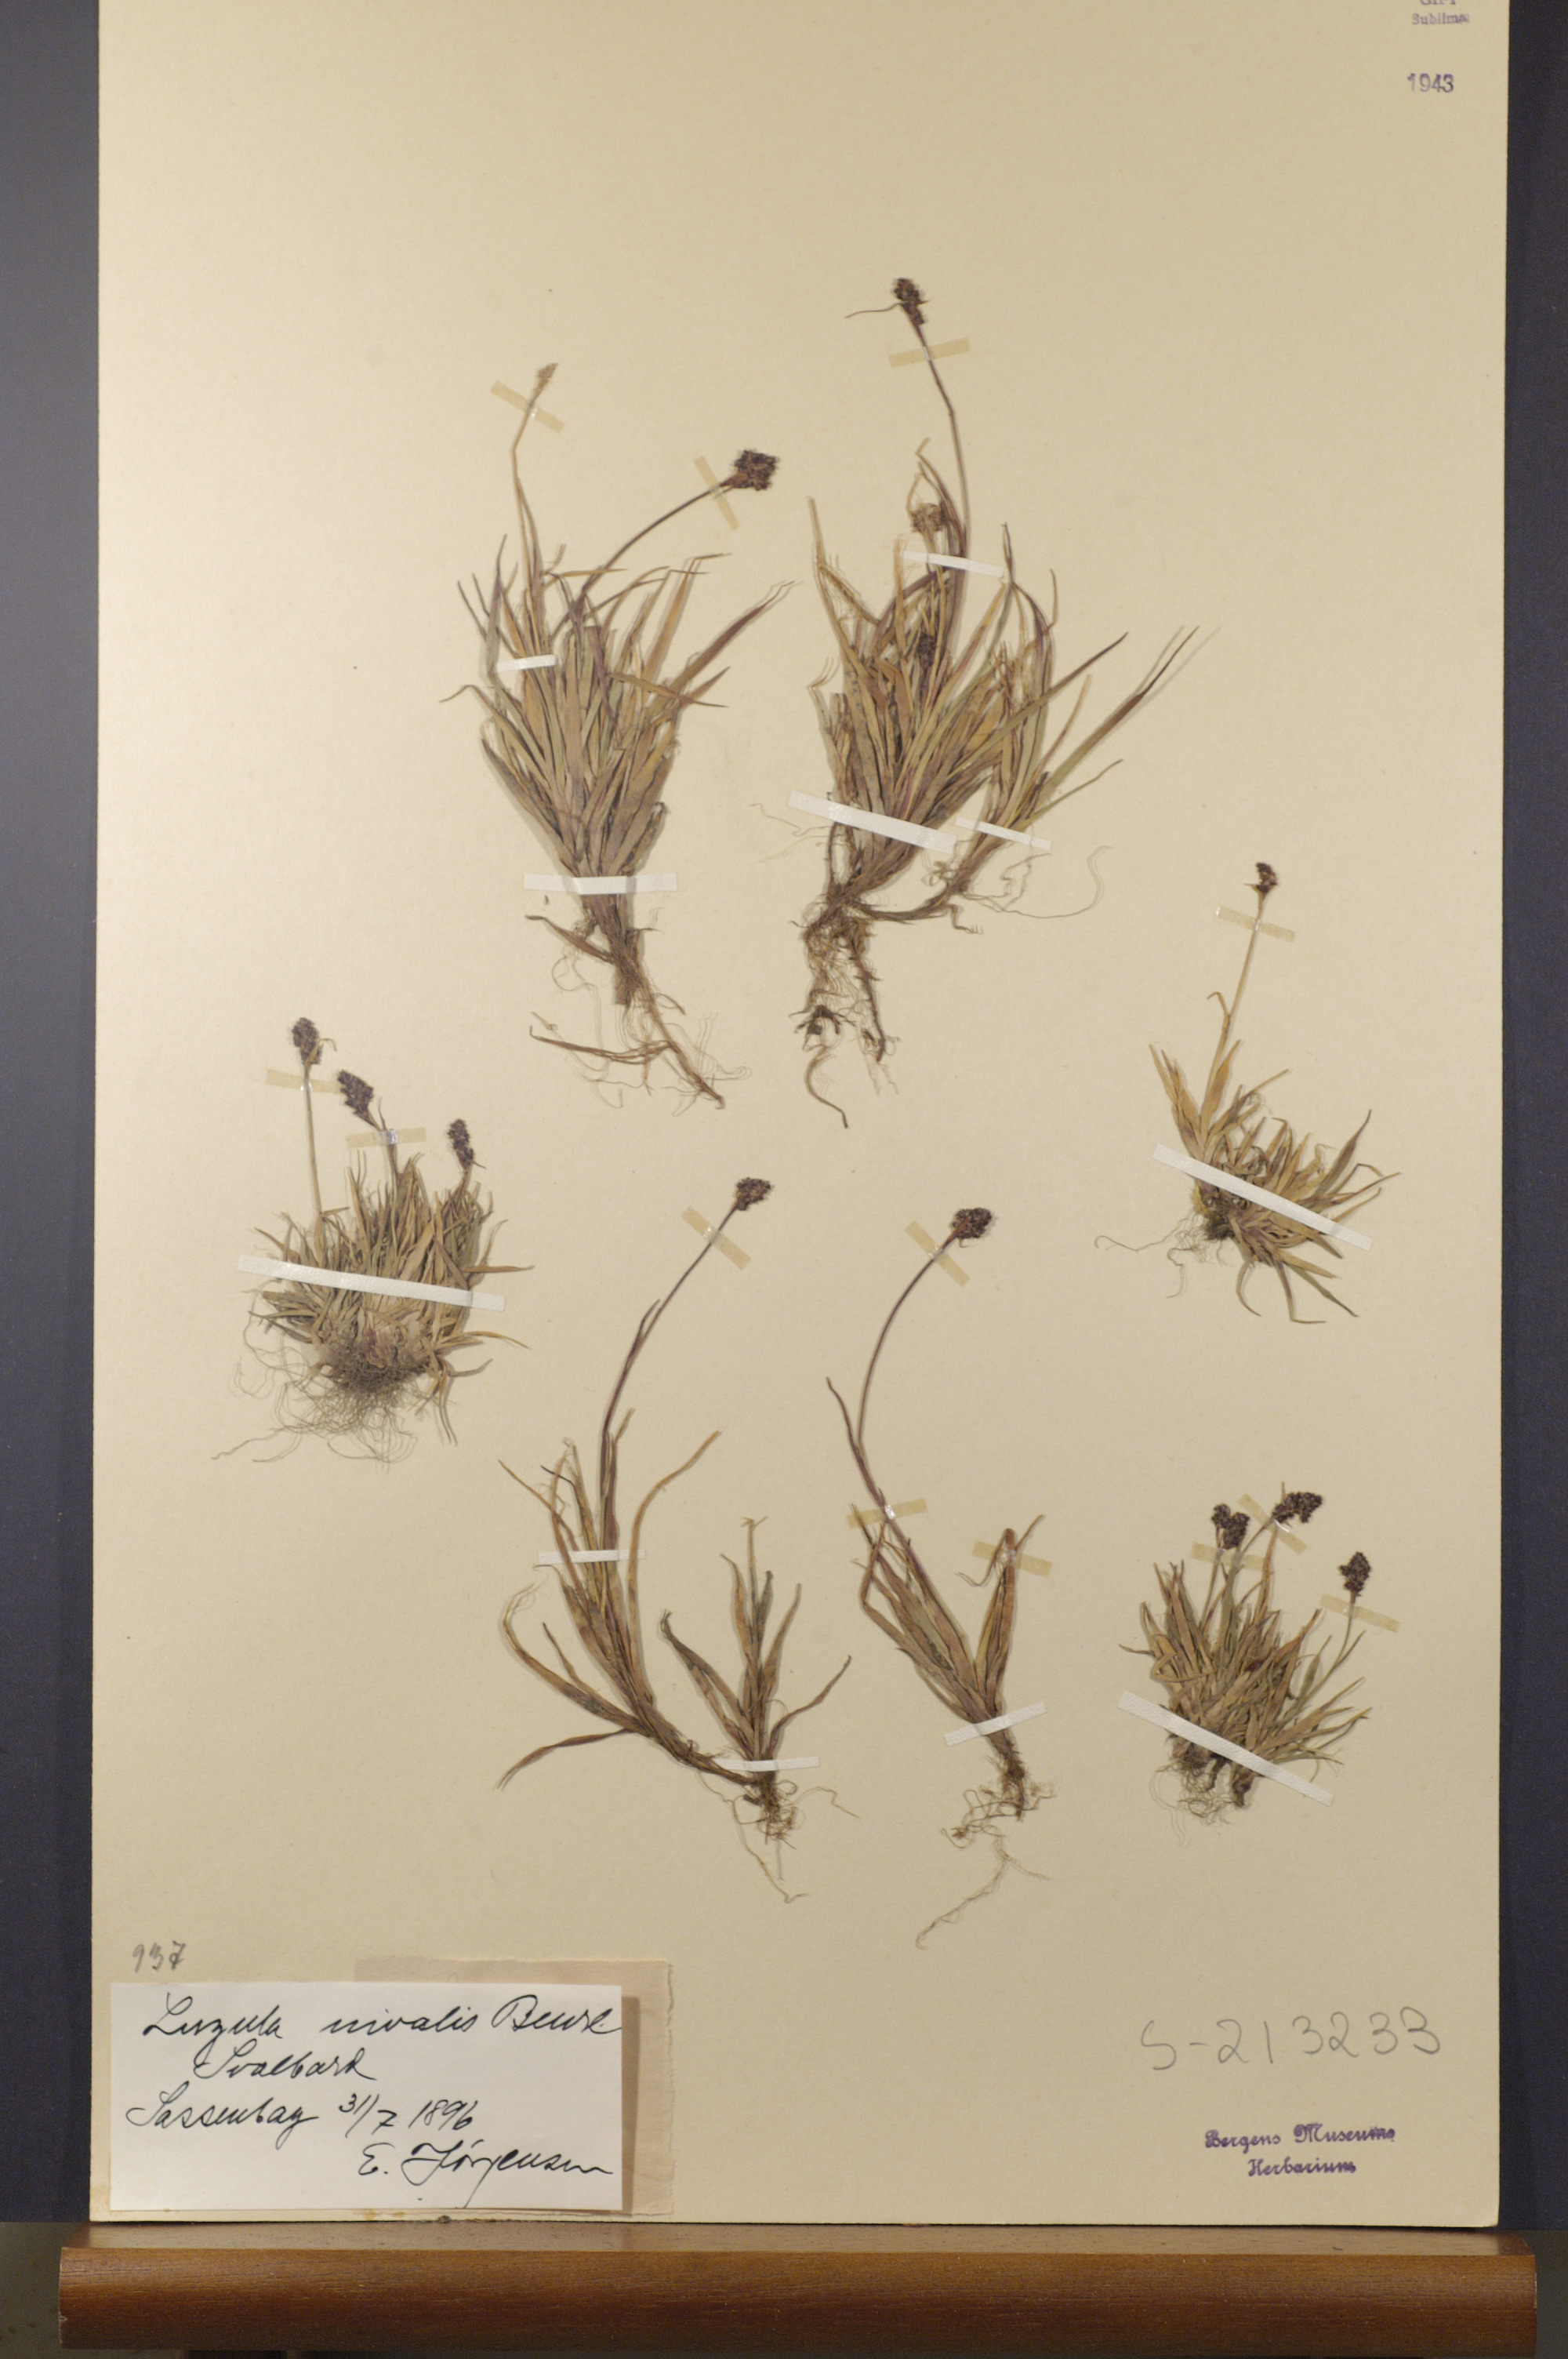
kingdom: Plantae
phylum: Tracheophyta
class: Liliopsida
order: Poales
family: Juncaceae
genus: Luzula
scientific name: Luzula nivalis
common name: Arctic woodrush
